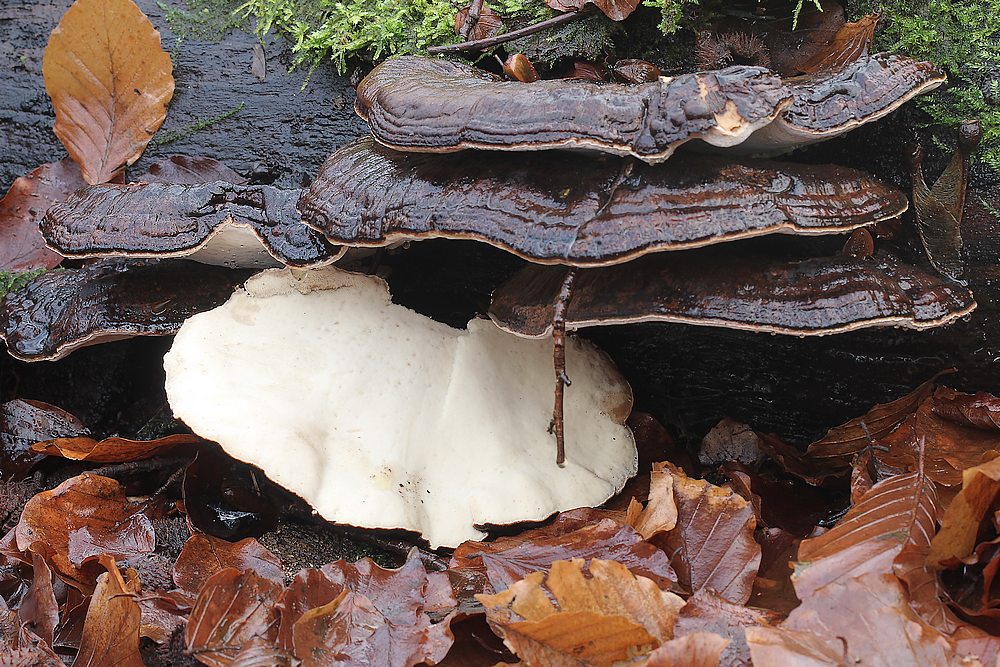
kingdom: Fungi
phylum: Basidiomycota
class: Agaricomycetes
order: Polyporales
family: Ischnodermataceae
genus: Ischnoderma
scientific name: Ischnoderma resinosum
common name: løv-tjæreporesvamp
